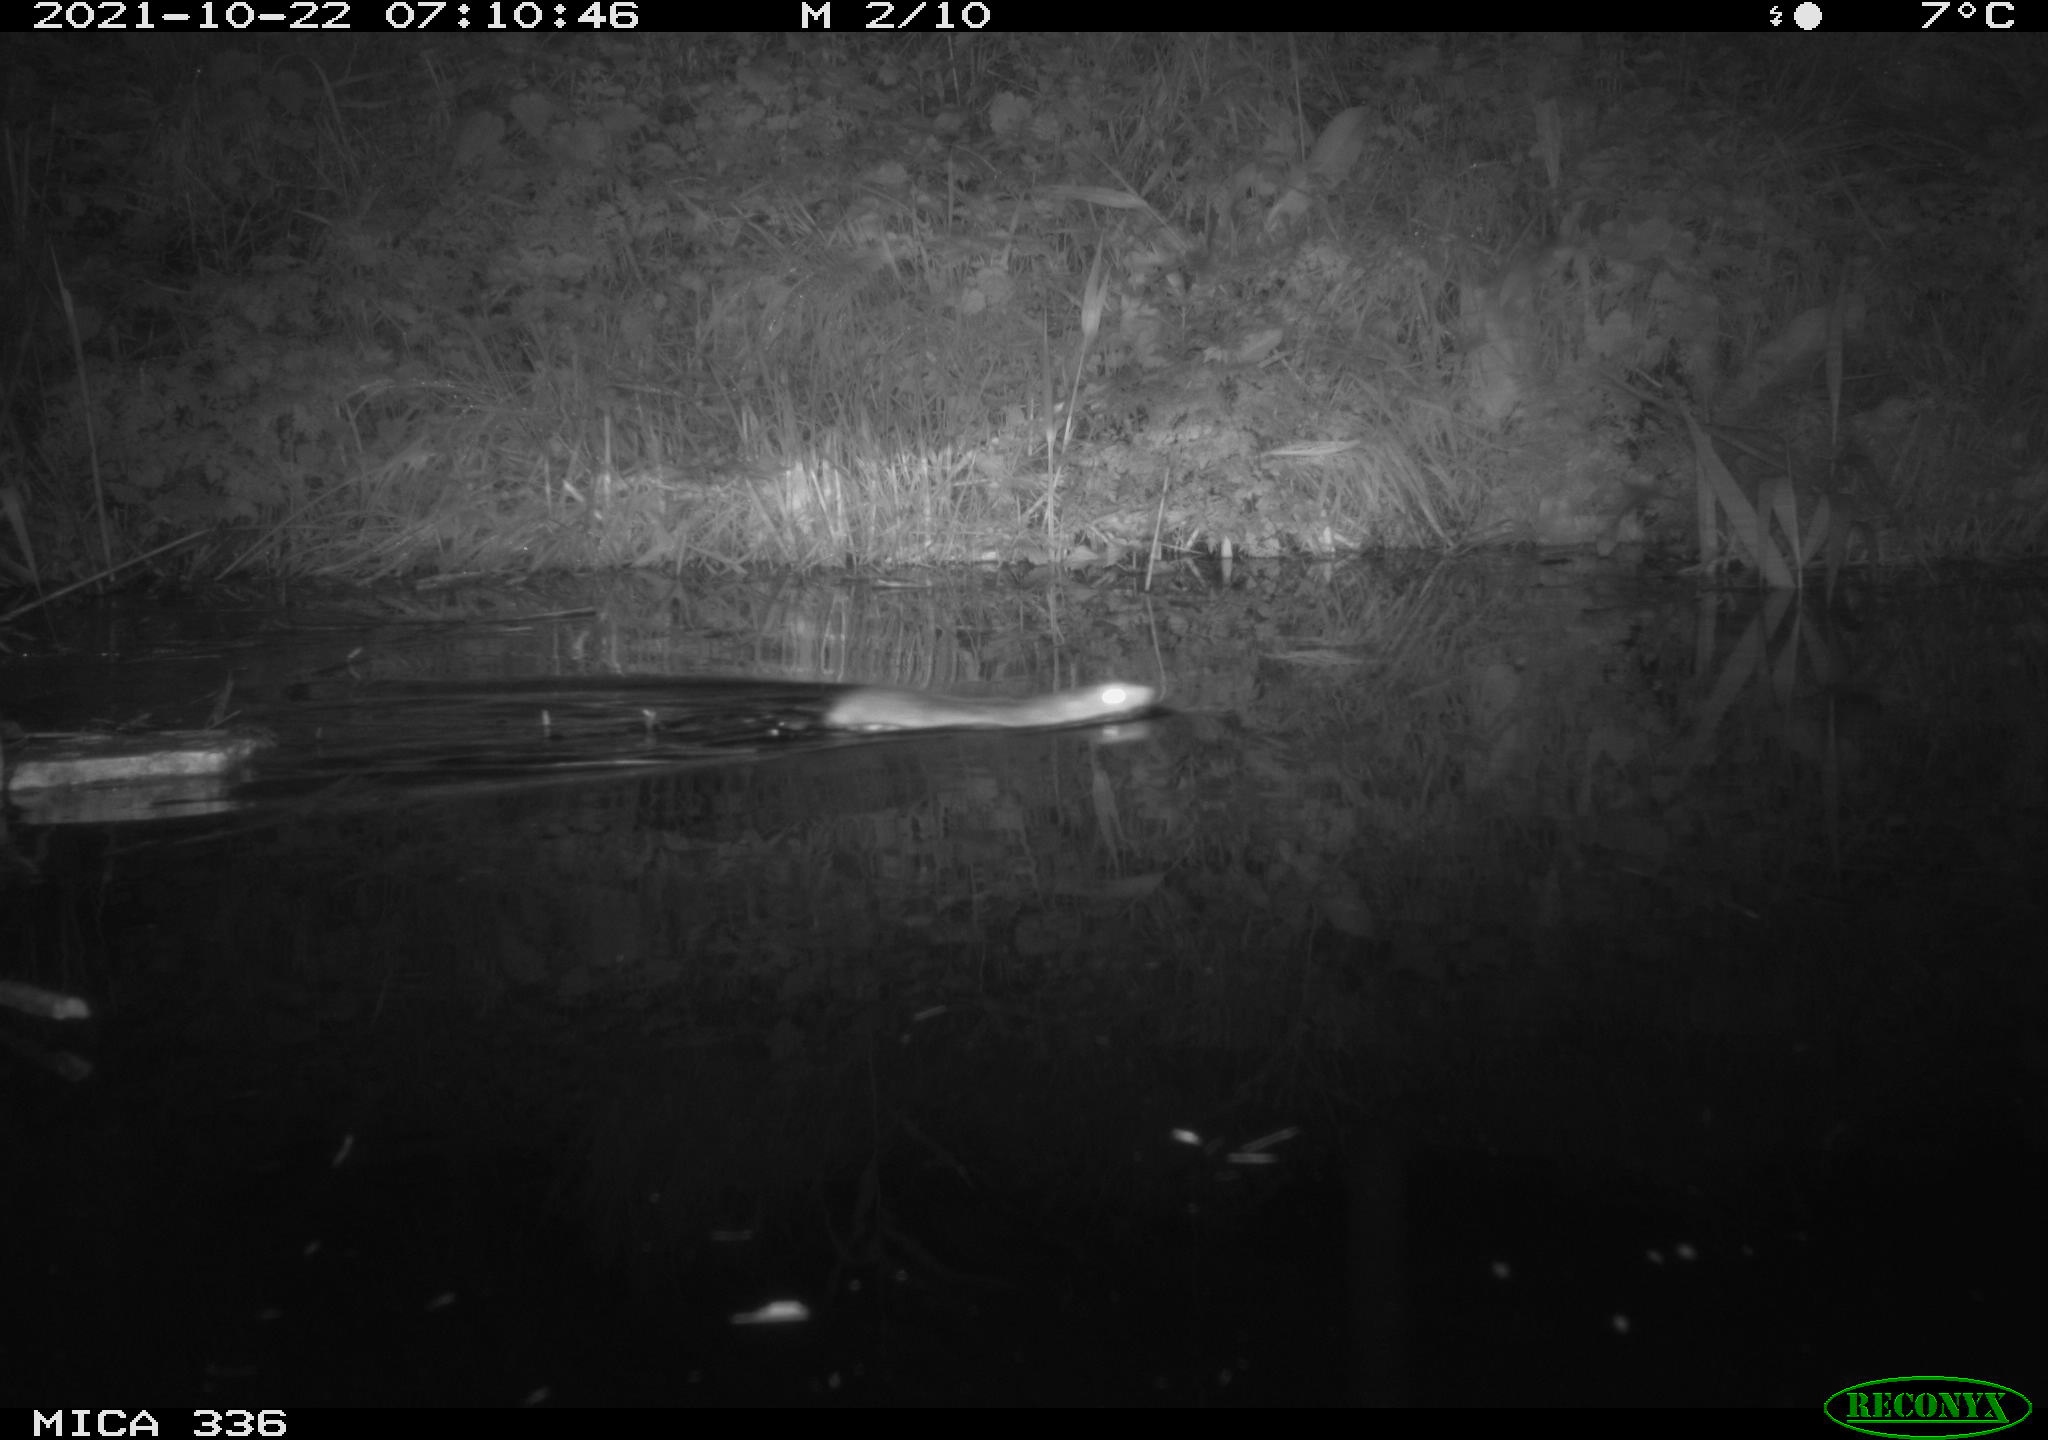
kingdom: Animalia
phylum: Chordata
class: Mammalia
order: Rodentia
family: Muridae
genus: Rattus
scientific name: Rattus norvegicus
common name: Brown rat
